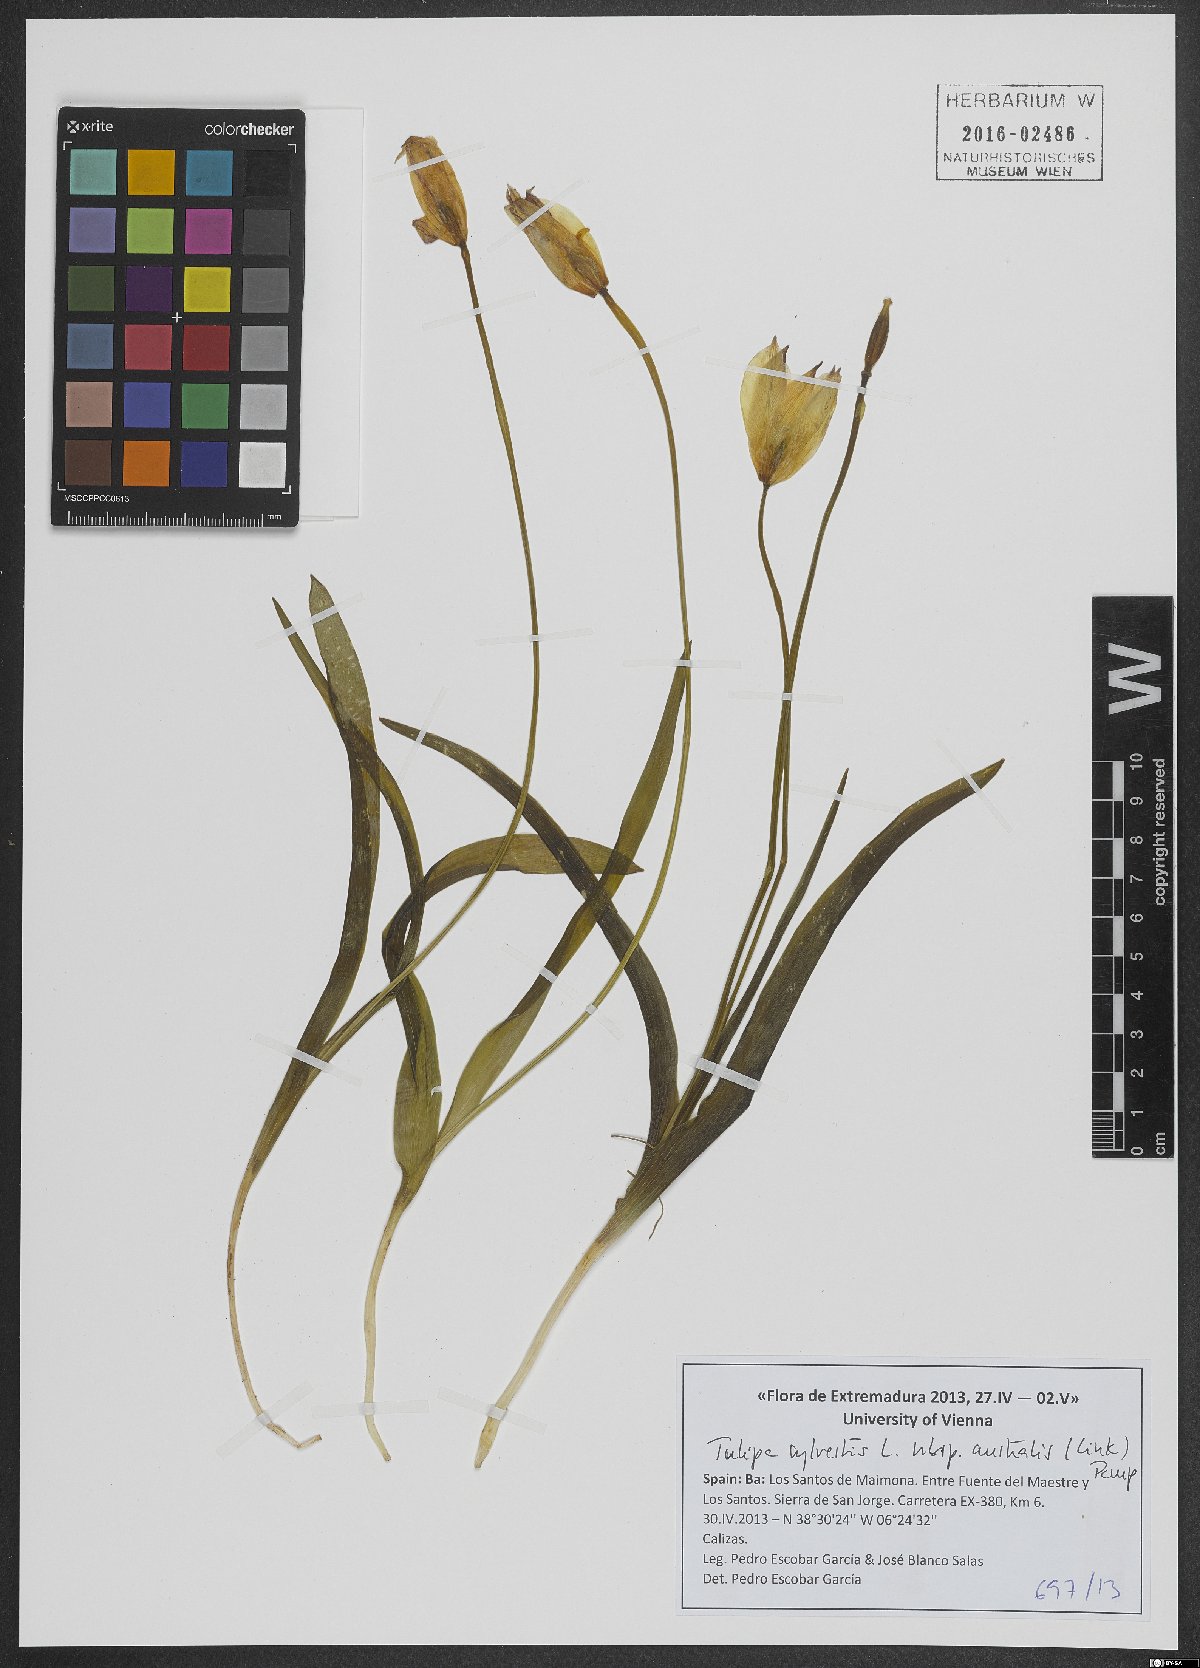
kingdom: Plantae
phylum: Tracheophyta
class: Liliopsida
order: Liliales
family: Liliaceae
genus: Tulipa
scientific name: Tulipa sylvestris
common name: Wild tulip
